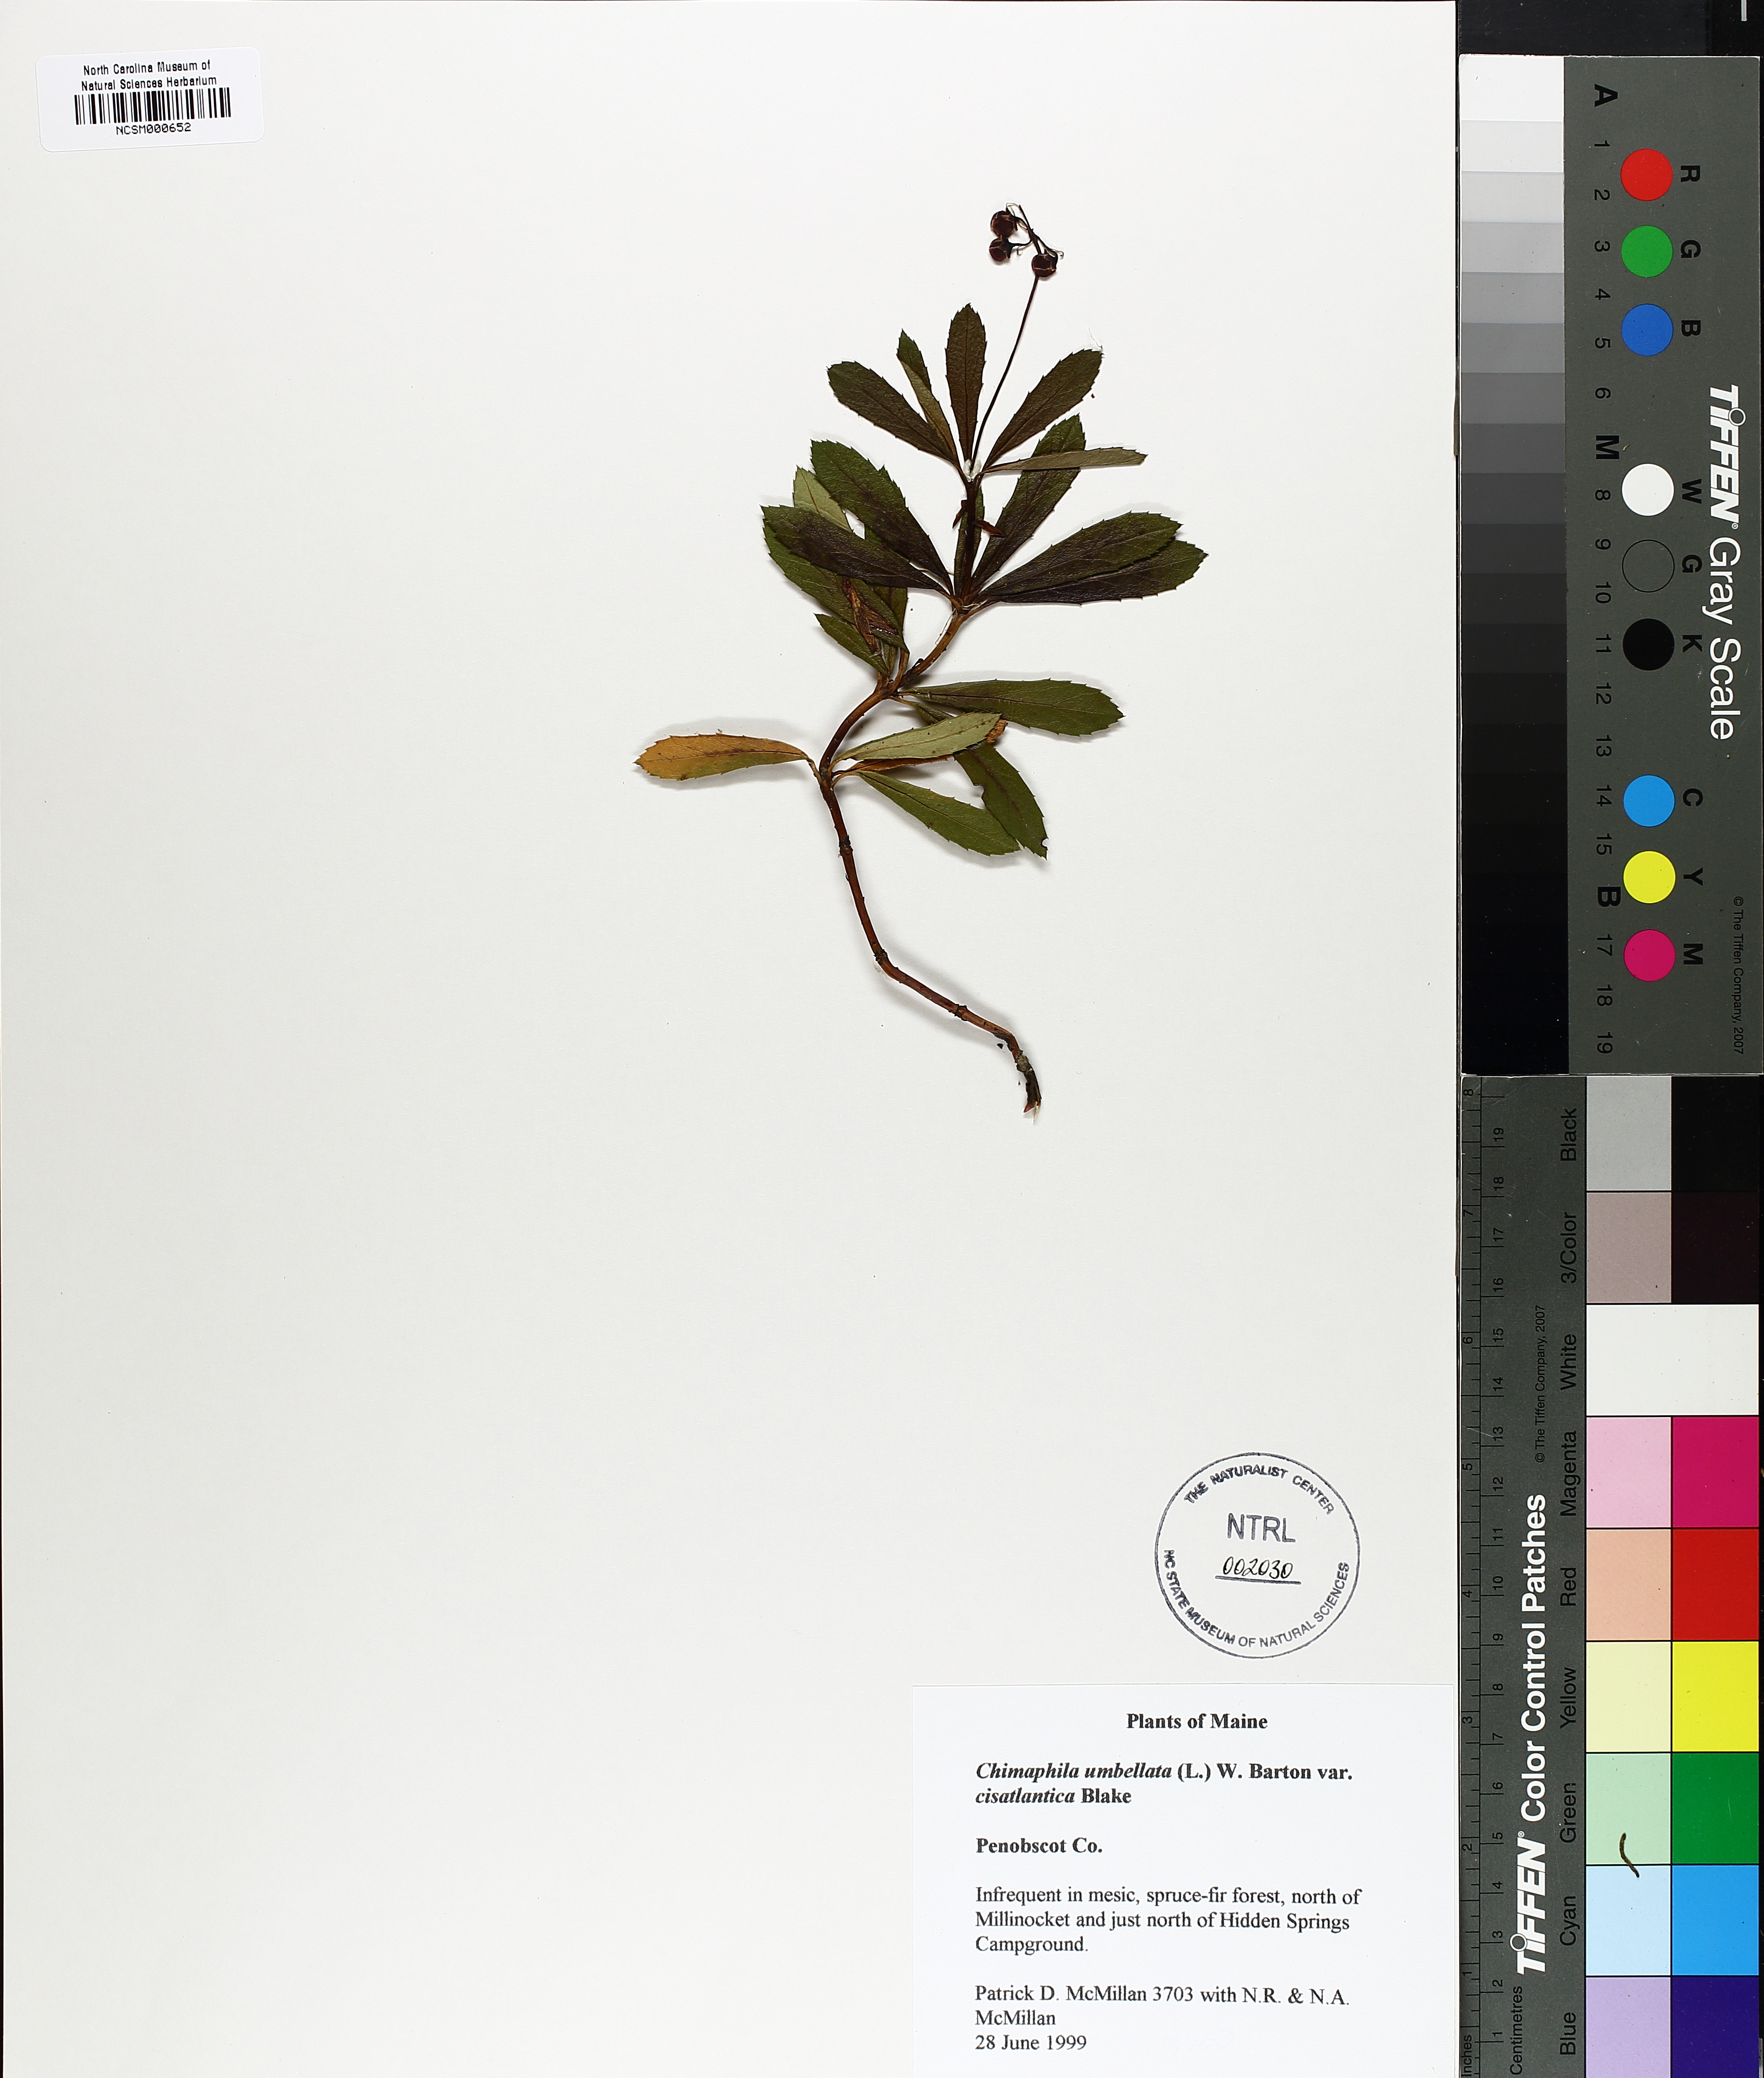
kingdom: Plantae
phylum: Tracheophyta
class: Magnoliopsida
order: Ericales
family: Ericaceae
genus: Chimaphila
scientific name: Chimaphila umbellata
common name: Pipsissewa
